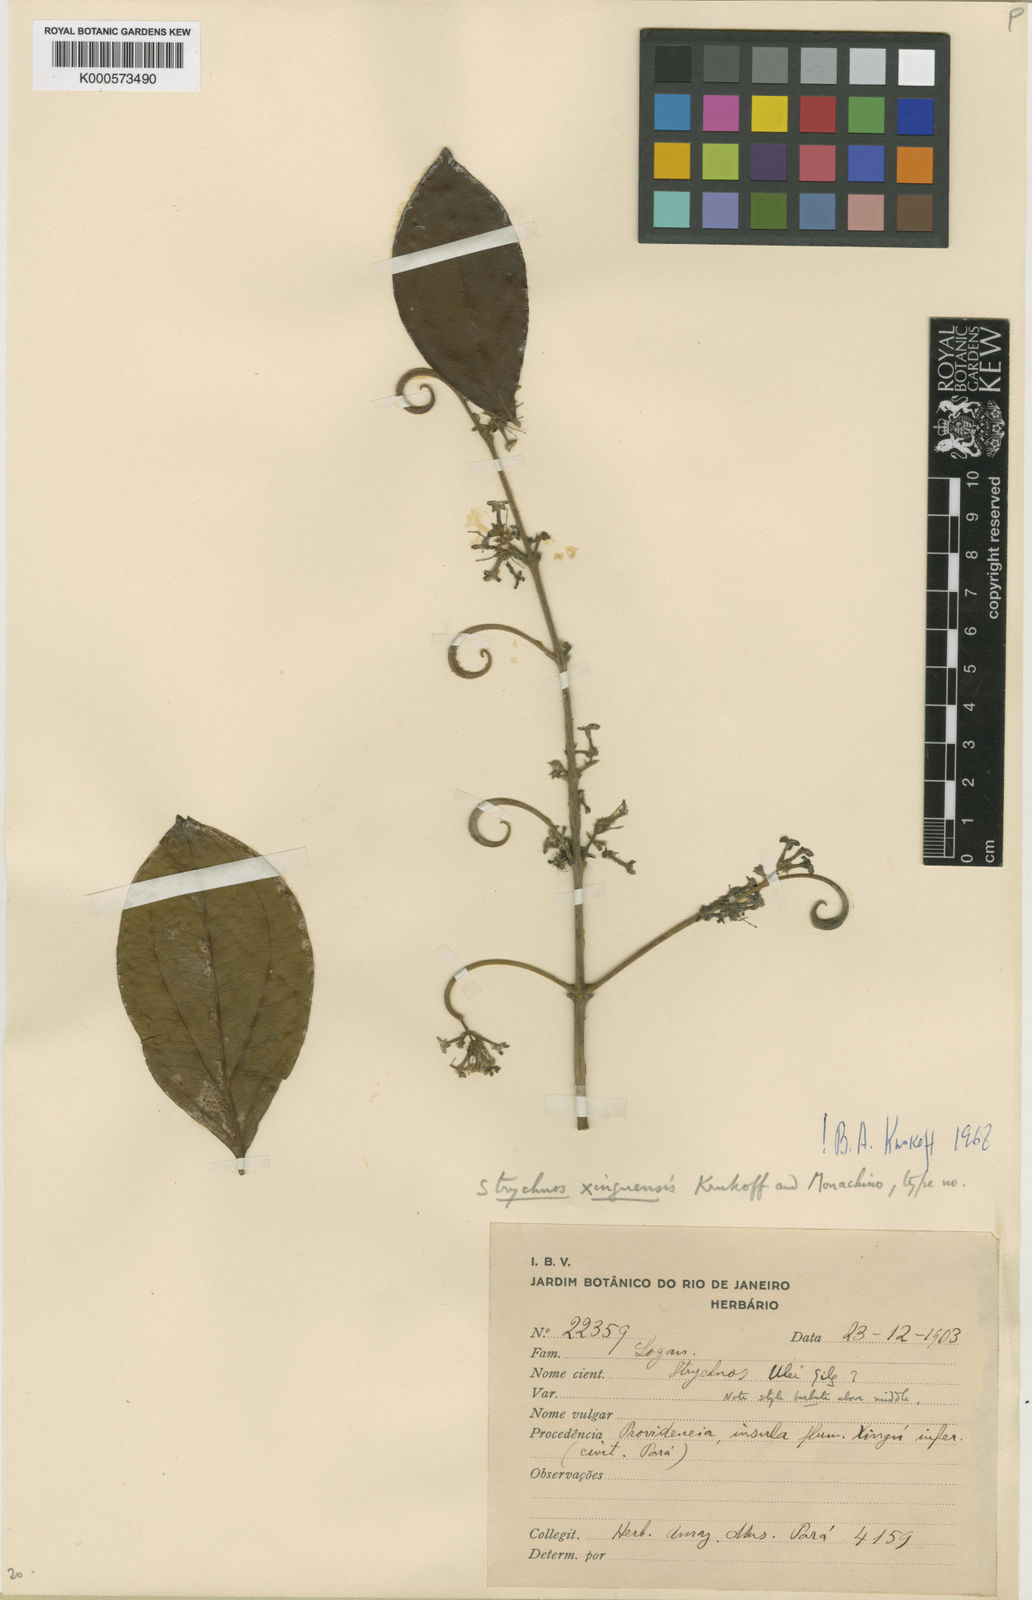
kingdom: Plantae
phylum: Tracheophyta
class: Magnoliopsida
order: Gentianales
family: Loganiaceae
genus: Strychnos
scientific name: Strychnos xinguensis
